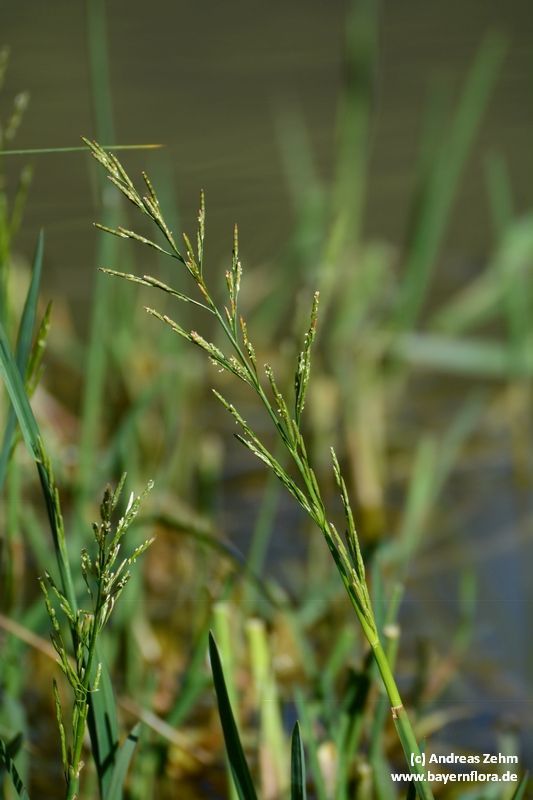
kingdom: Plantae
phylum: Tracheophyta
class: Liliopsida
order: Poales
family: Poaceae
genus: Glyceria
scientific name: Glyceria notata
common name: Plicate sweet-grass
